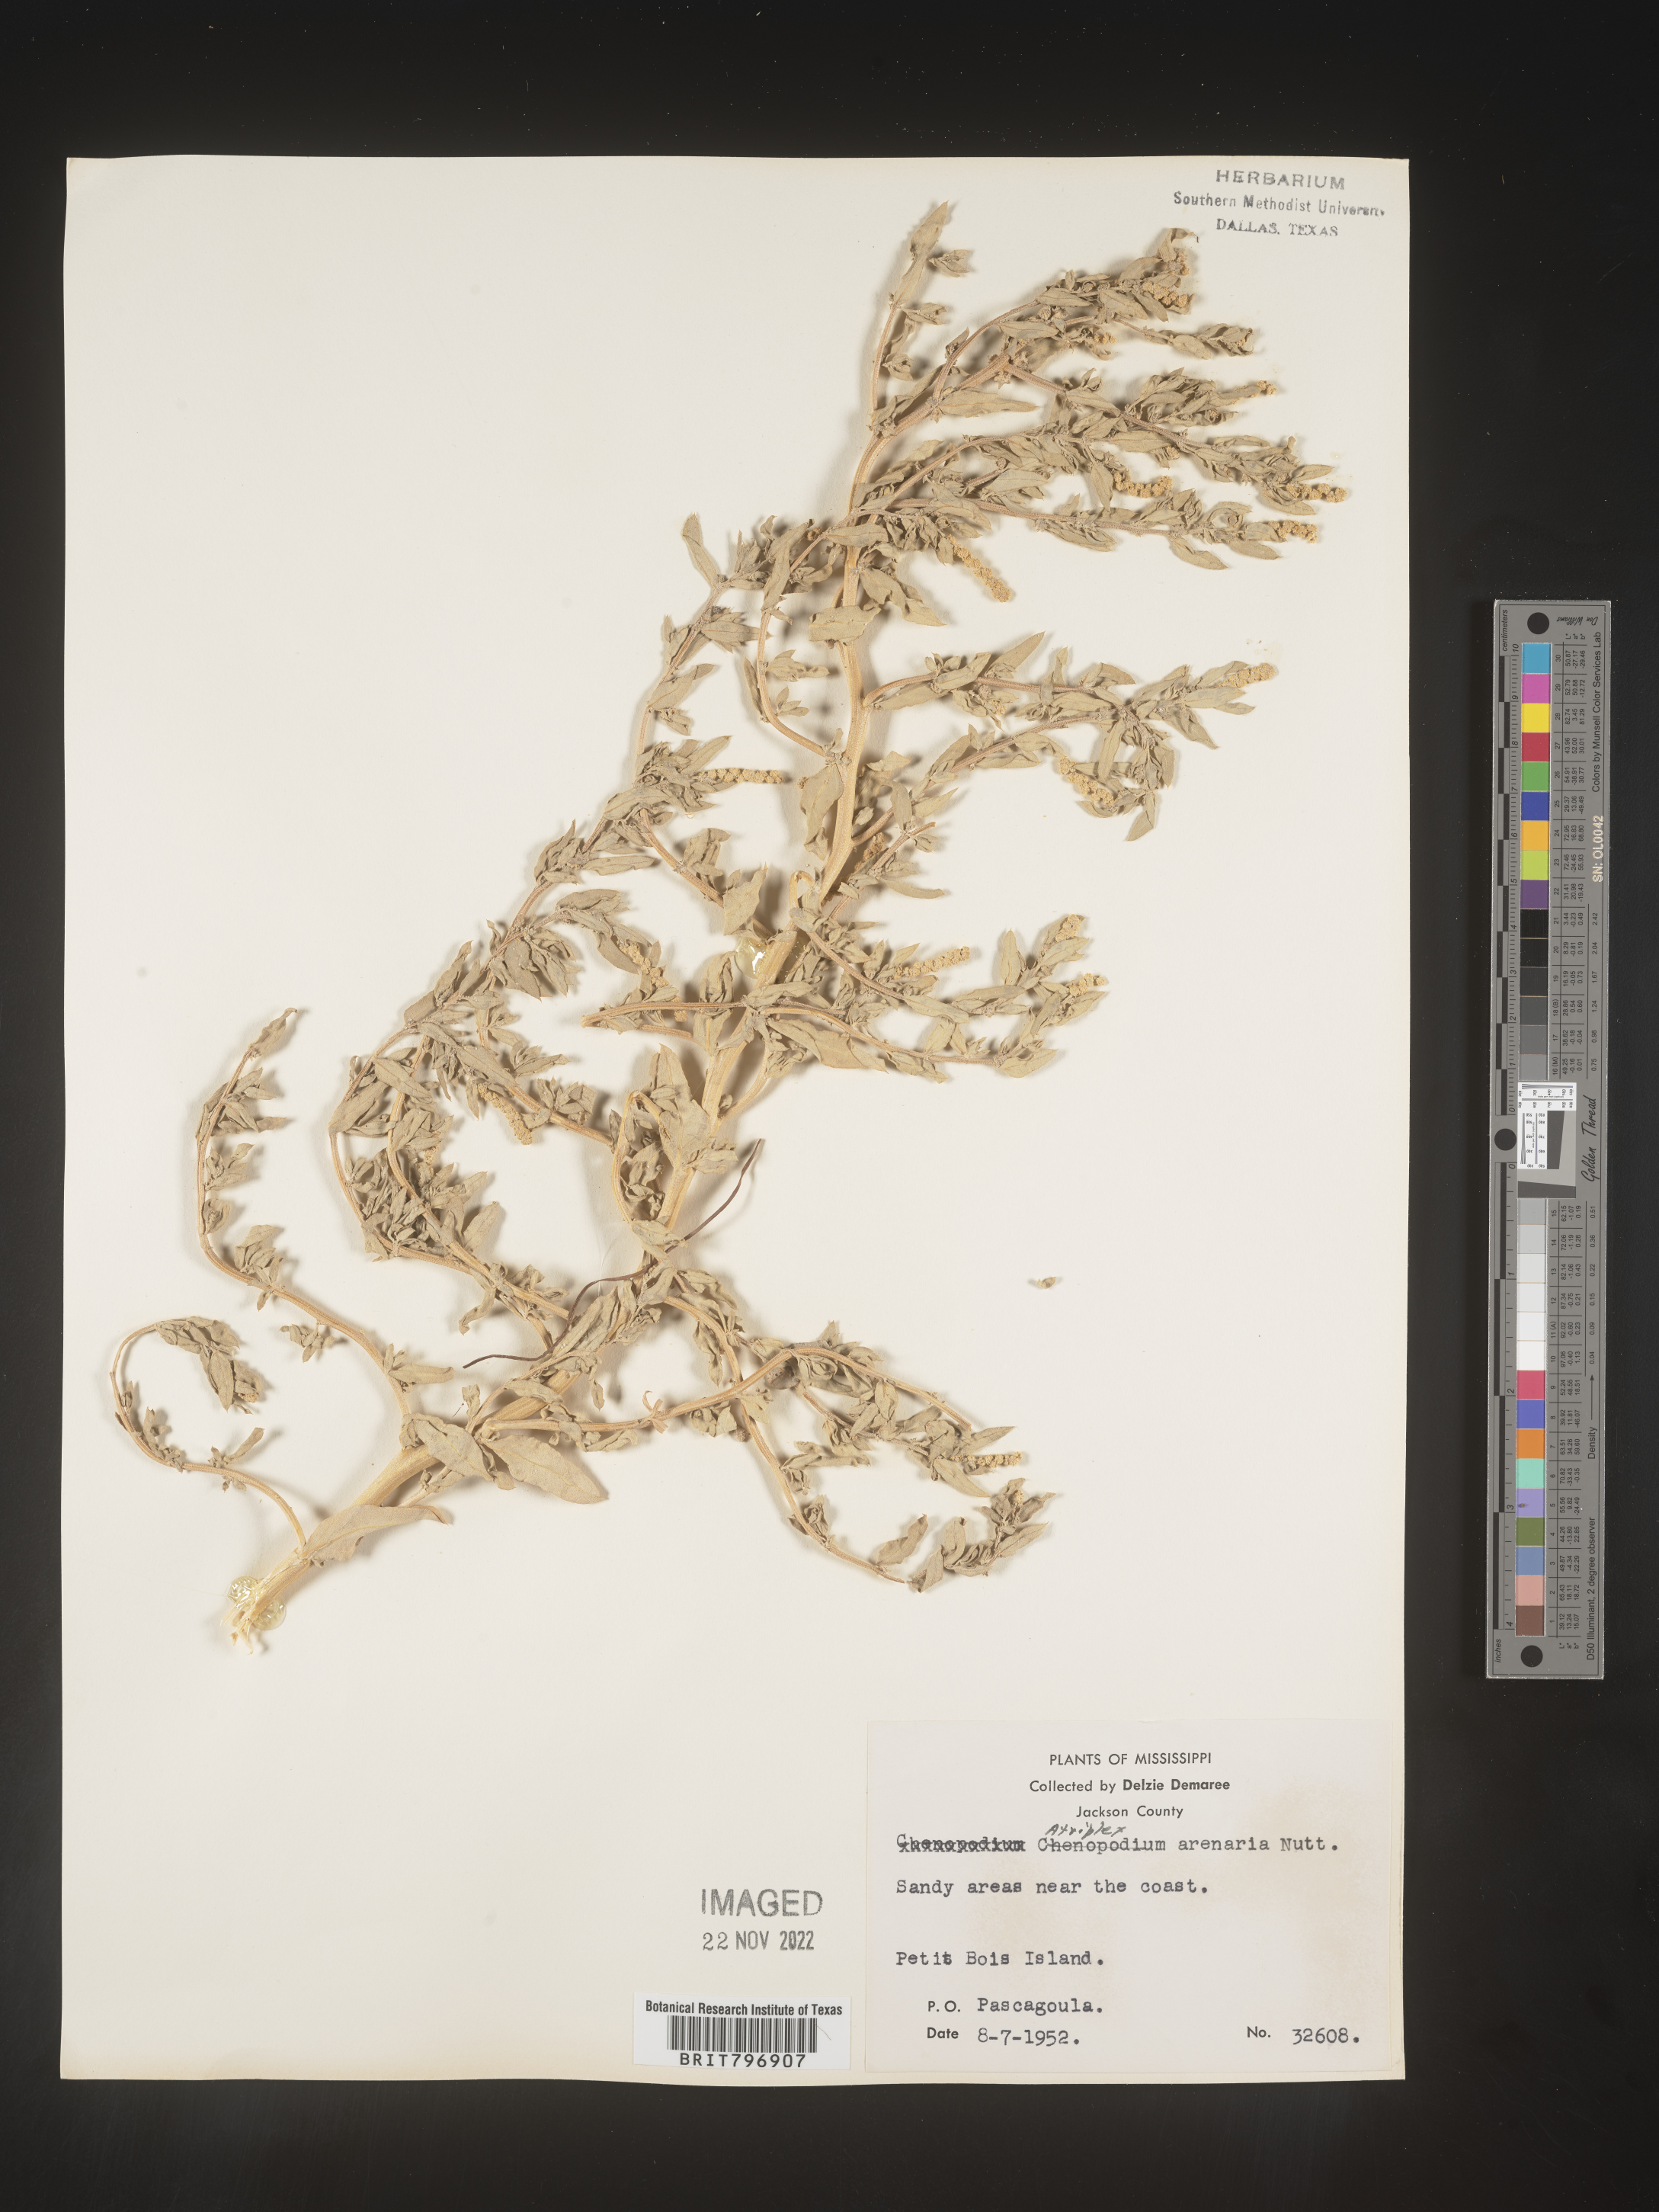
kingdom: Plantae
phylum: Tracheophyta
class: Magnoliopsida
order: Caryophyllales
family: Amaranthaceae
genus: Atriplex
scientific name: Atriplex mucronata
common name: Quelite
